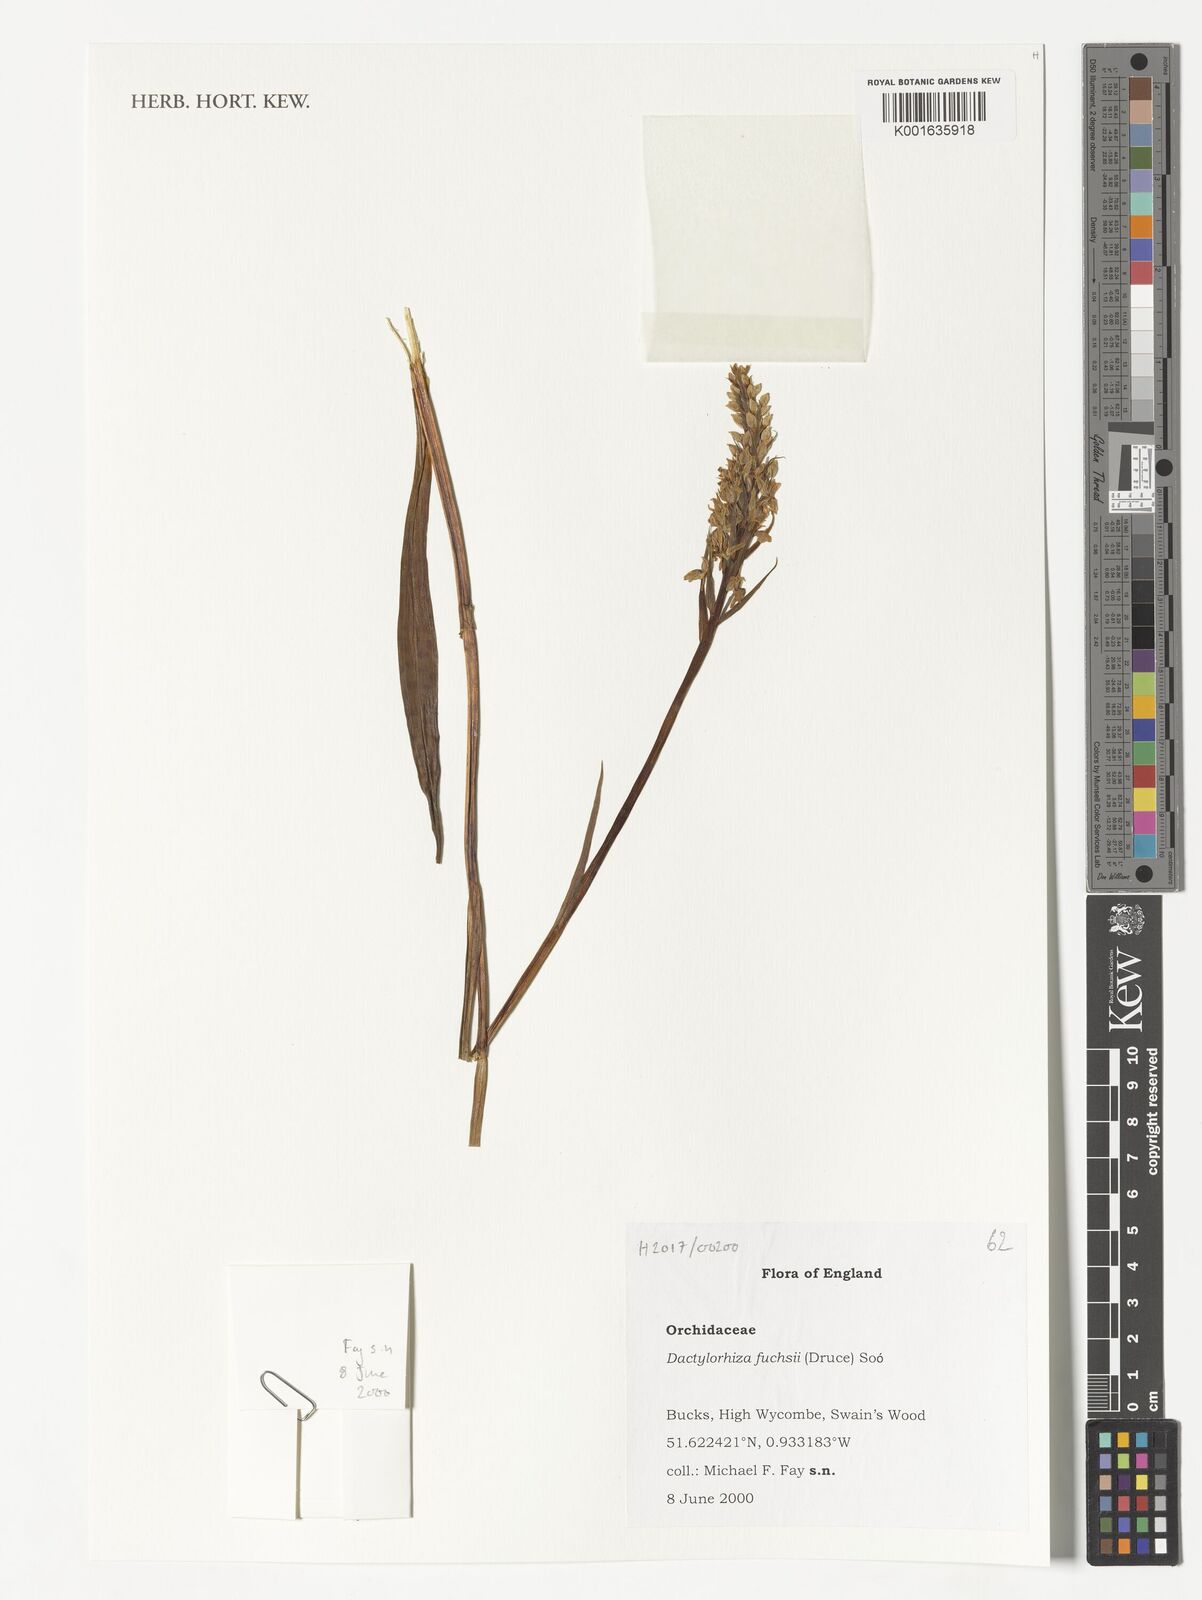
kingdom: Plantae
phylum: Tracheophyta
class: Liliopsida
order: Asparagales
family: Orchidaceae
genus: Dactylorhiza
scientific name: Dactylorhiza maculata
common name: Heath spotted-orchid
